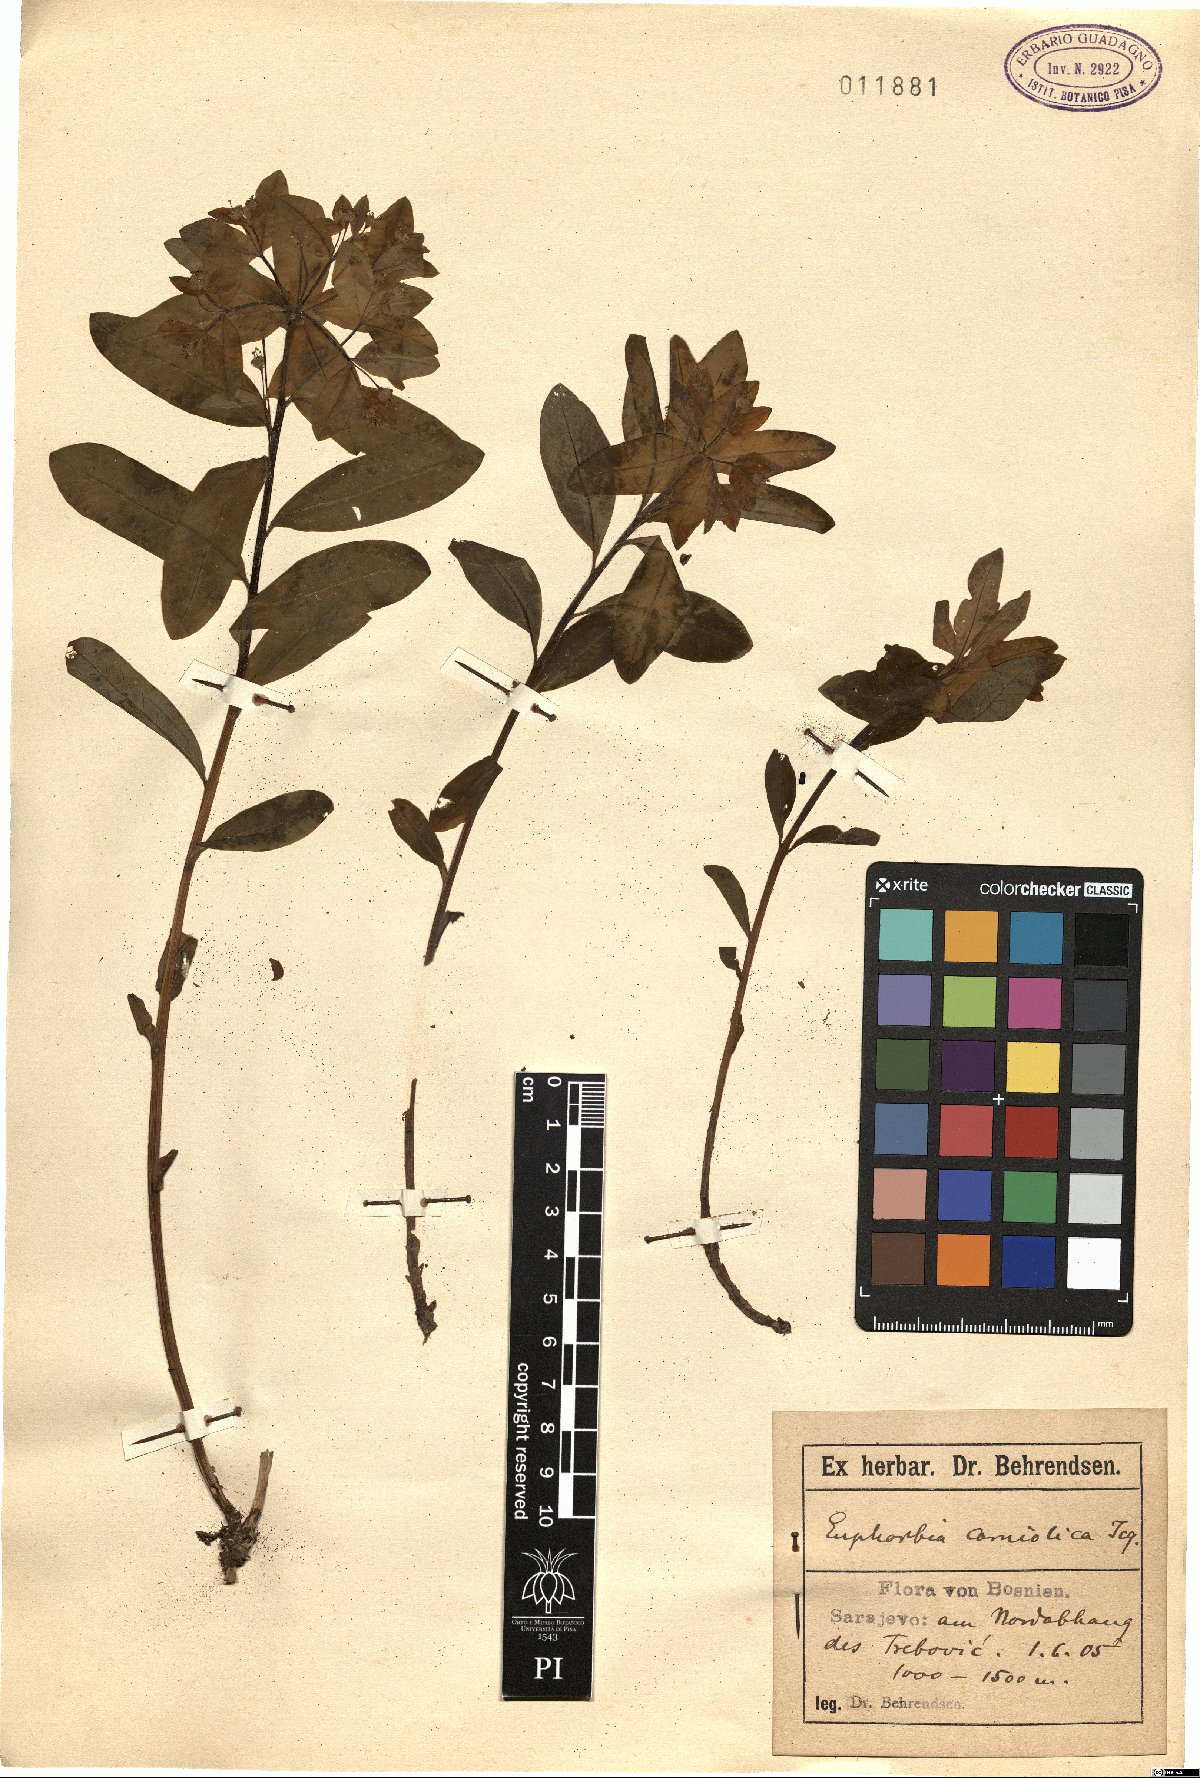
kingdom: Plantae
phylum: Tracheophyta
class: Magnoliopsida
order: Malpighiales
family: Euphorbiaceae
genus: Euphorbia
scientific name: Euphorbia carniolica
